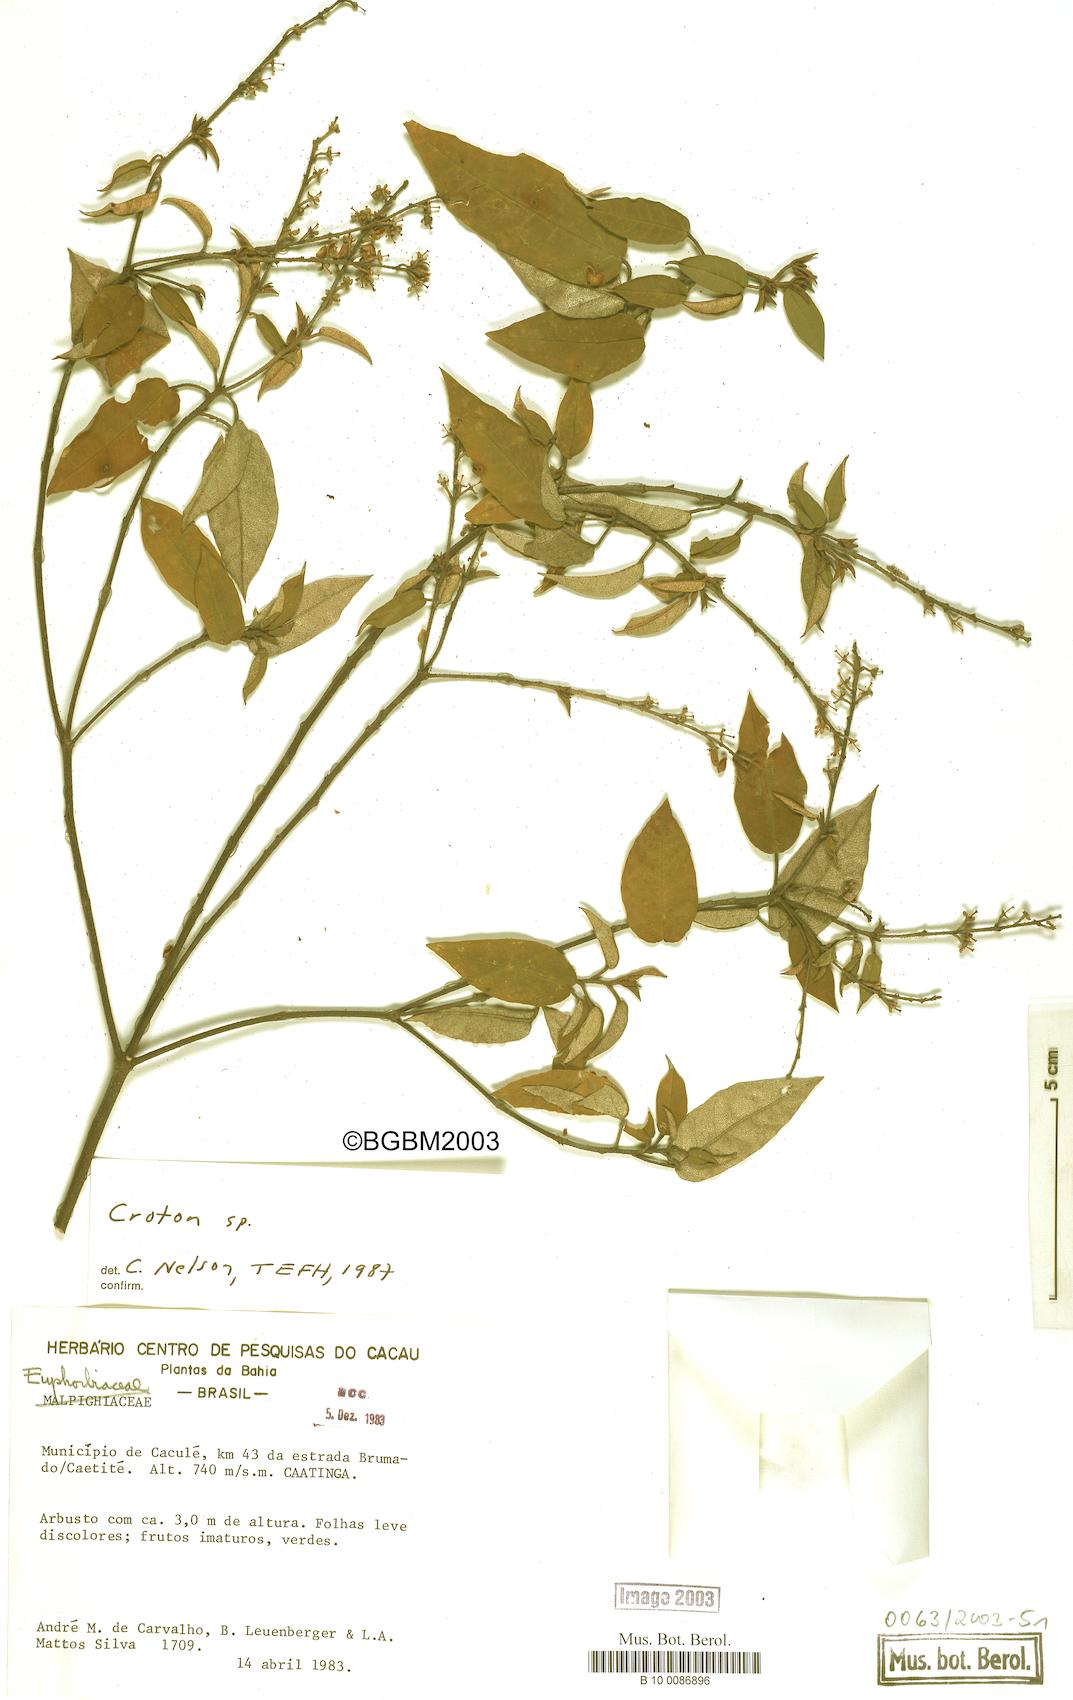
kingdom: Plantae
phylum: Tracheophyta
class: Magnoliopsida
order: Malpighiales
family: Euphorbiaceae
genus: Croton
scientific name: Croton
